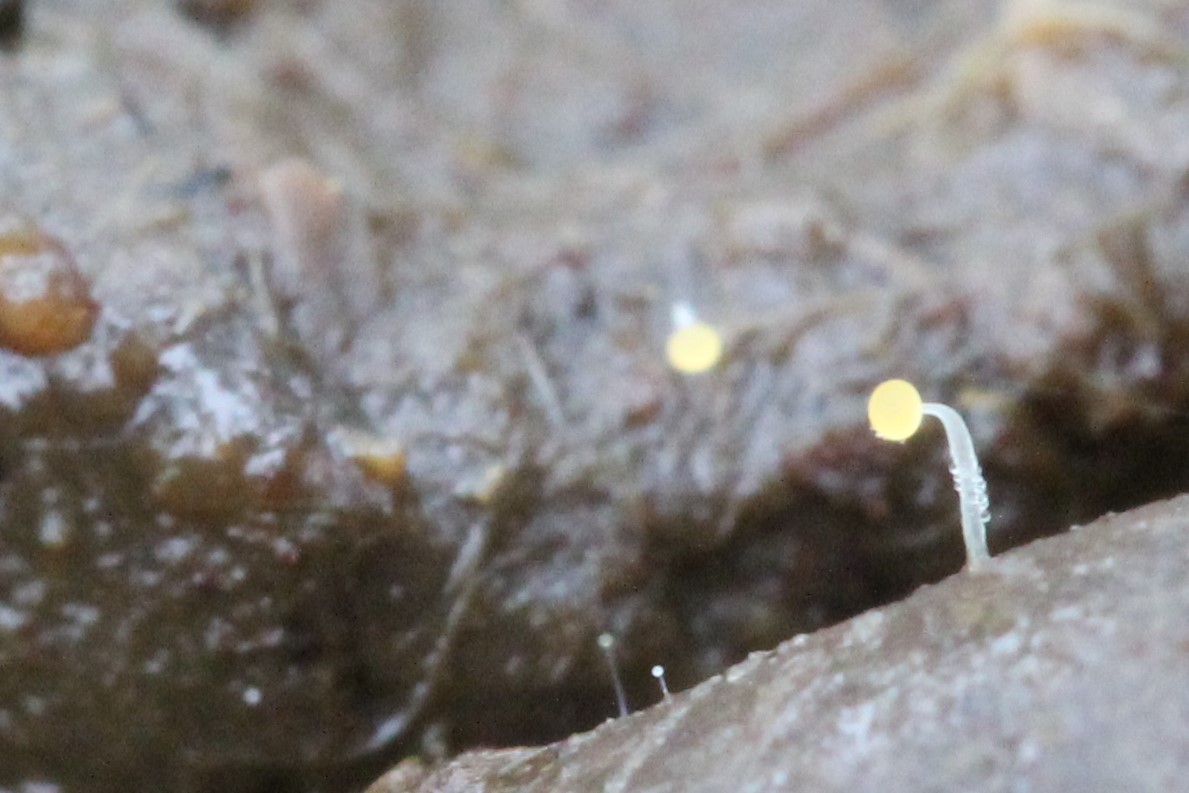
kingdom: Fungi
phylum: Mucoromycota
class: Mucoromycetes
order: Mucorales
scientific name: Mucorales
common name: mugordenen
